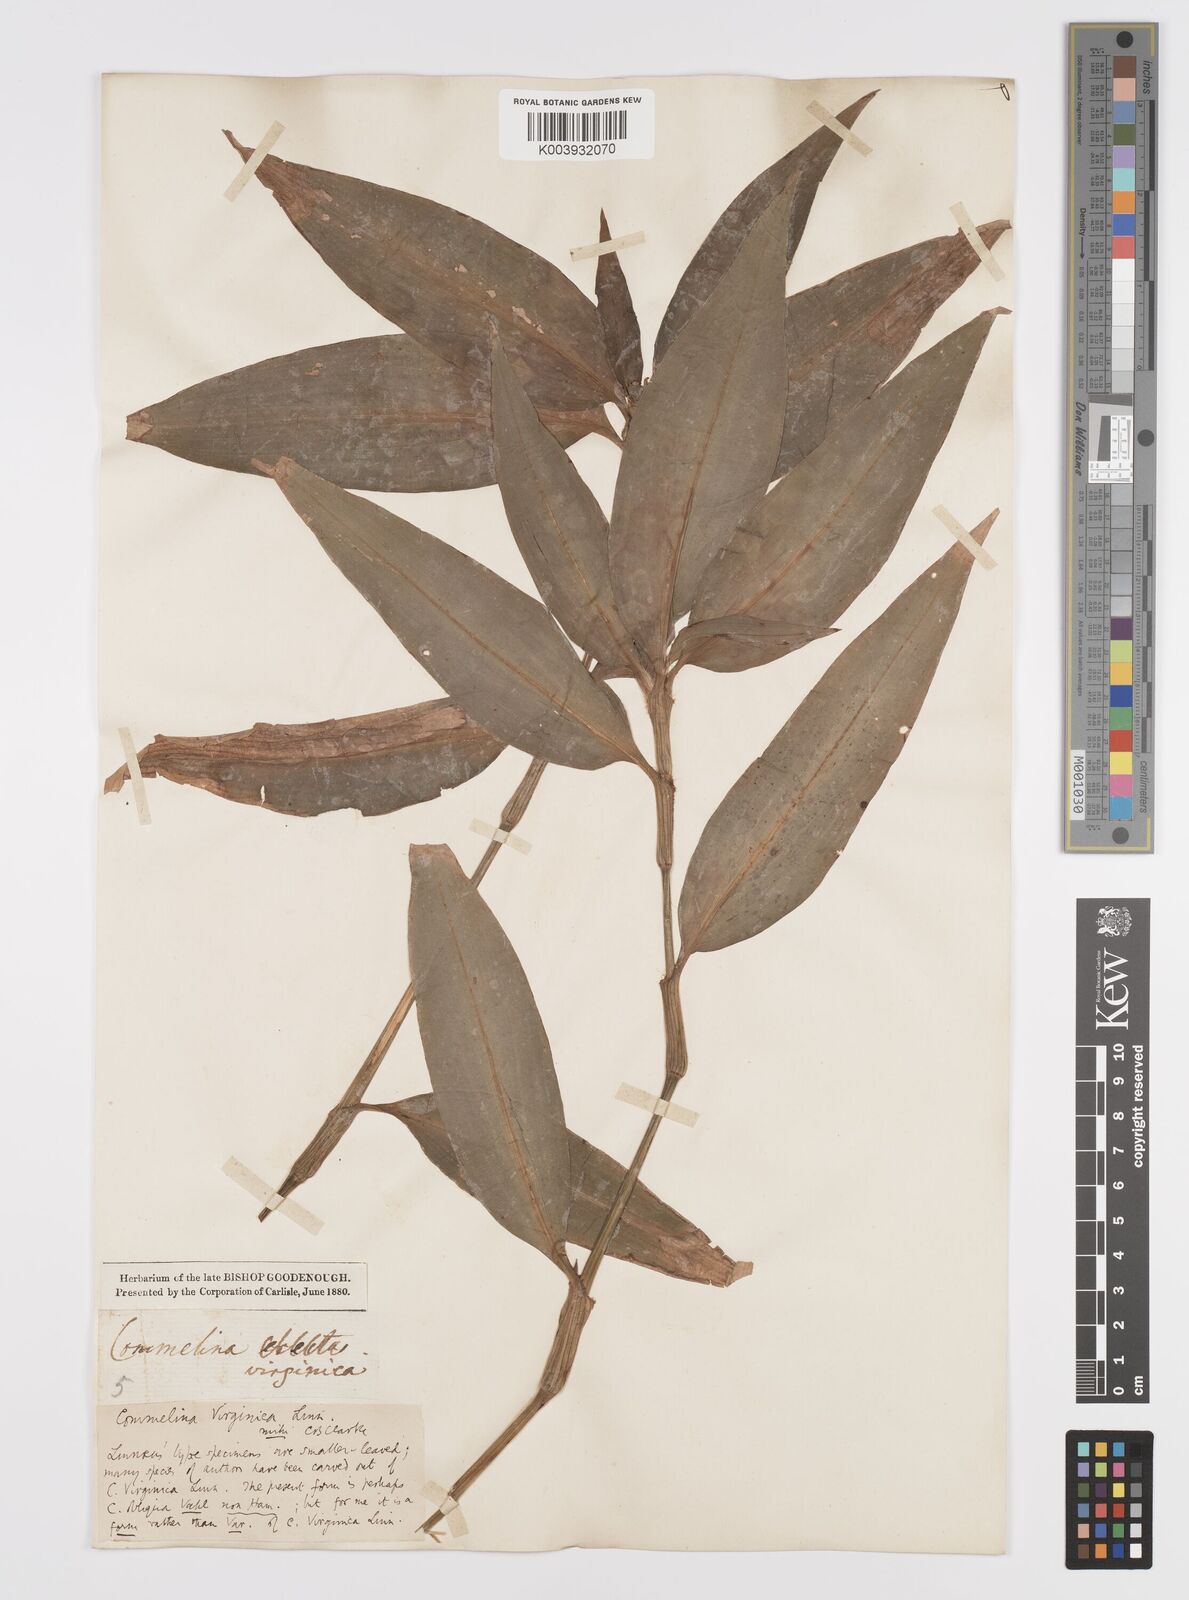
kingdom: Plantae
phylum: Tracheophyta
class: Liliopsida
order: Commelinales
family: Commelinaceae
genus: Commelina
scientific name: Commelina virginica
